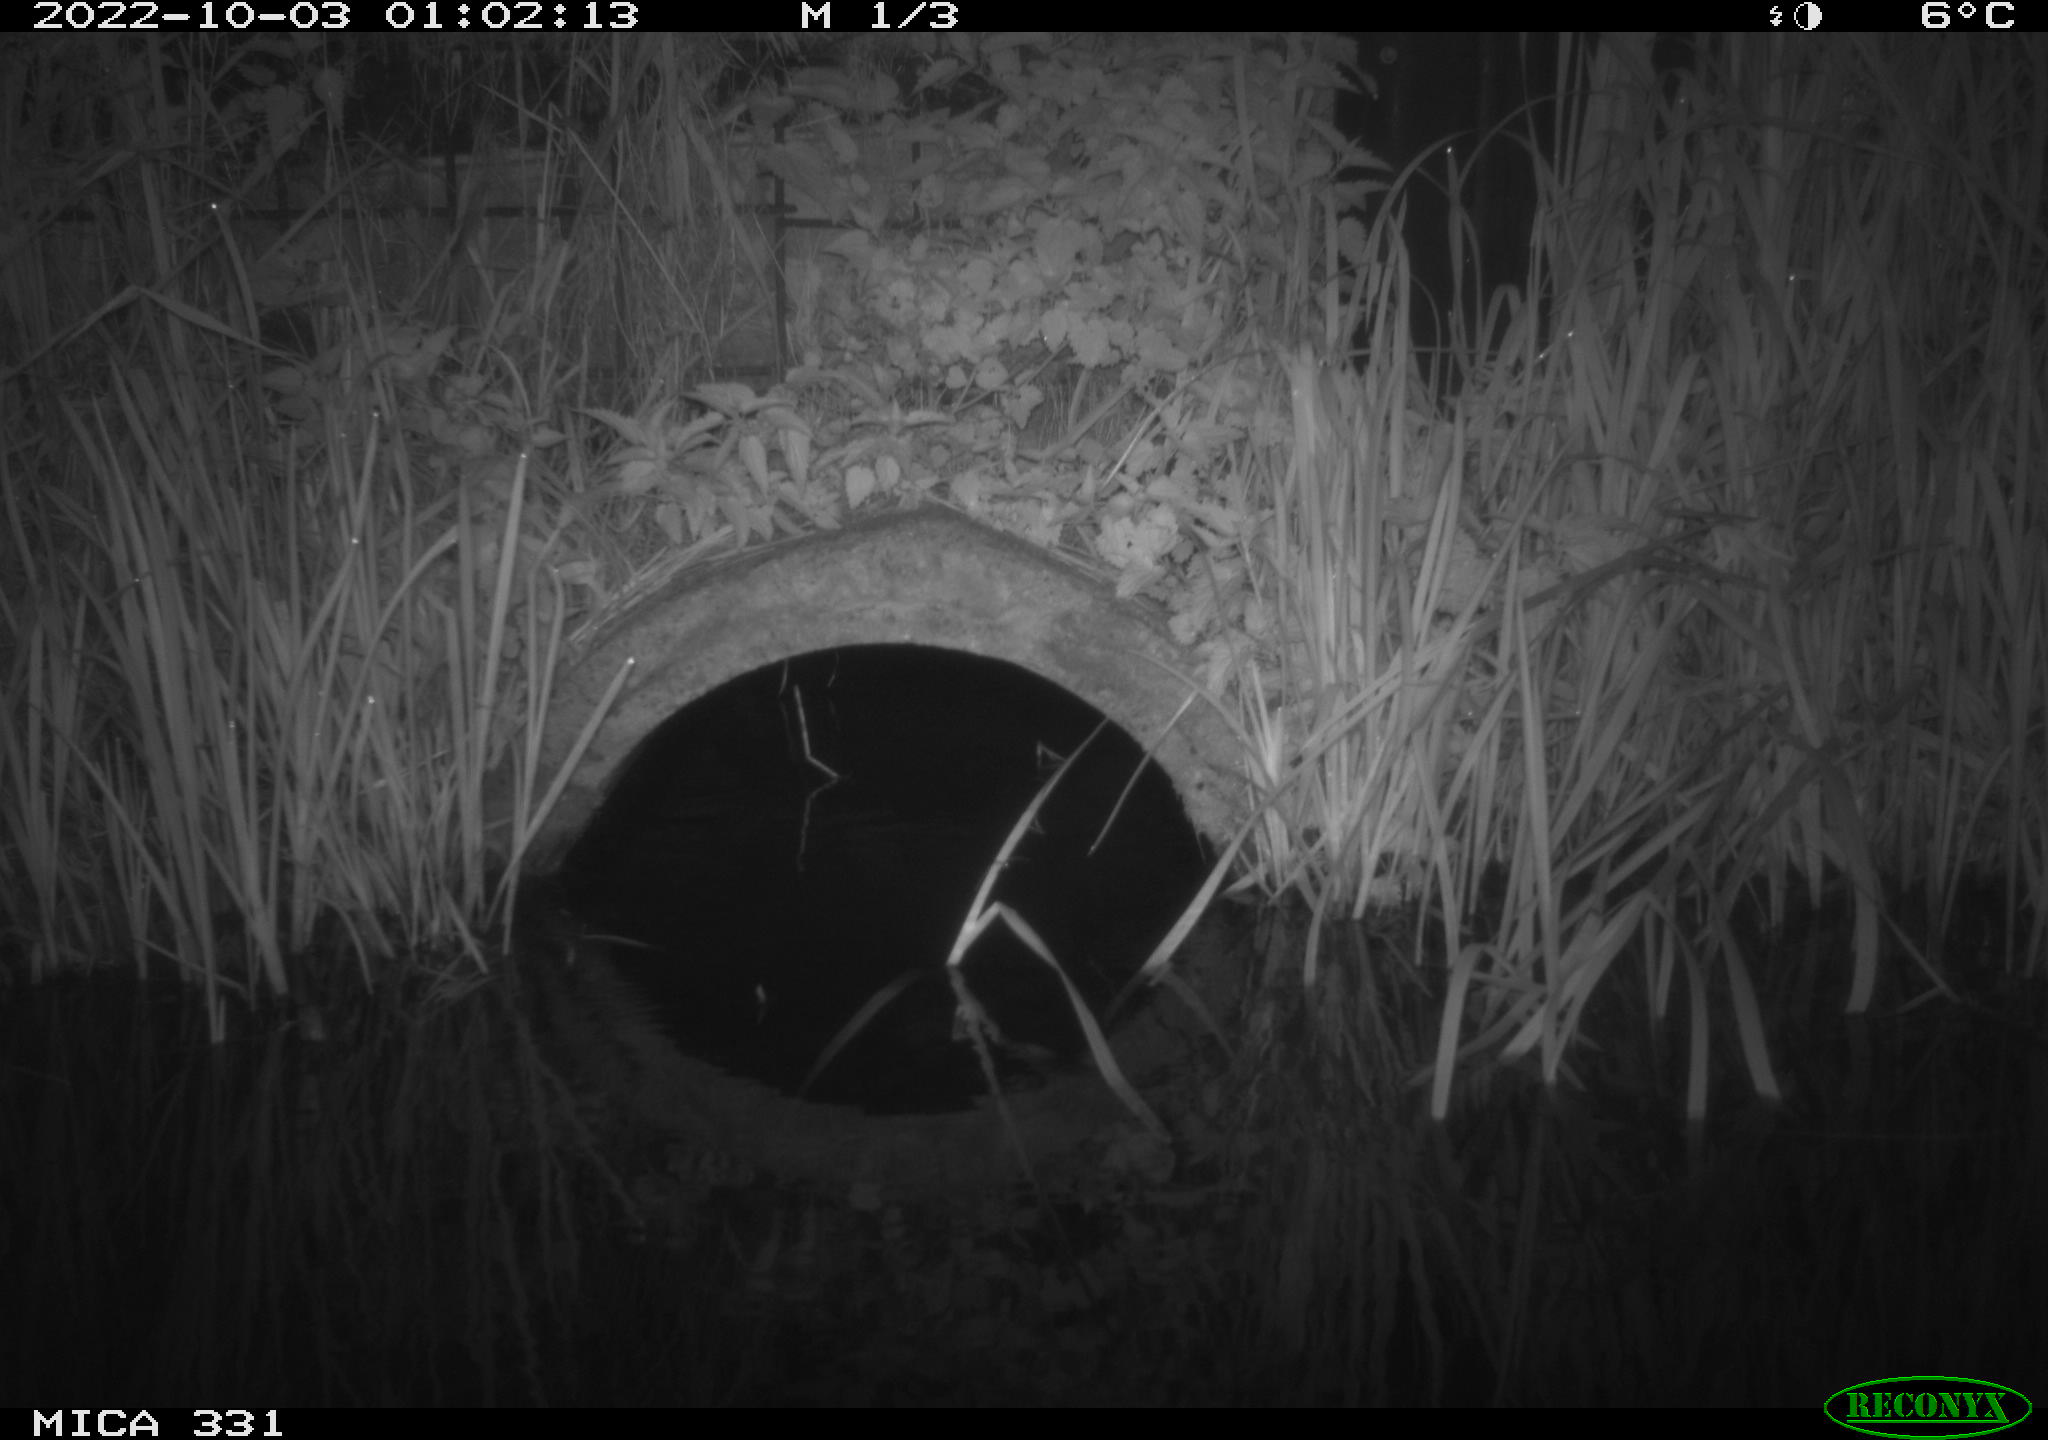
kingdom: Animalia
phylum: Chordata
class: Mammalia
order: Rodentia
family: Muridae
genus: Rattus
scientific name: Rattus norvegicus
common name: Brown rat
